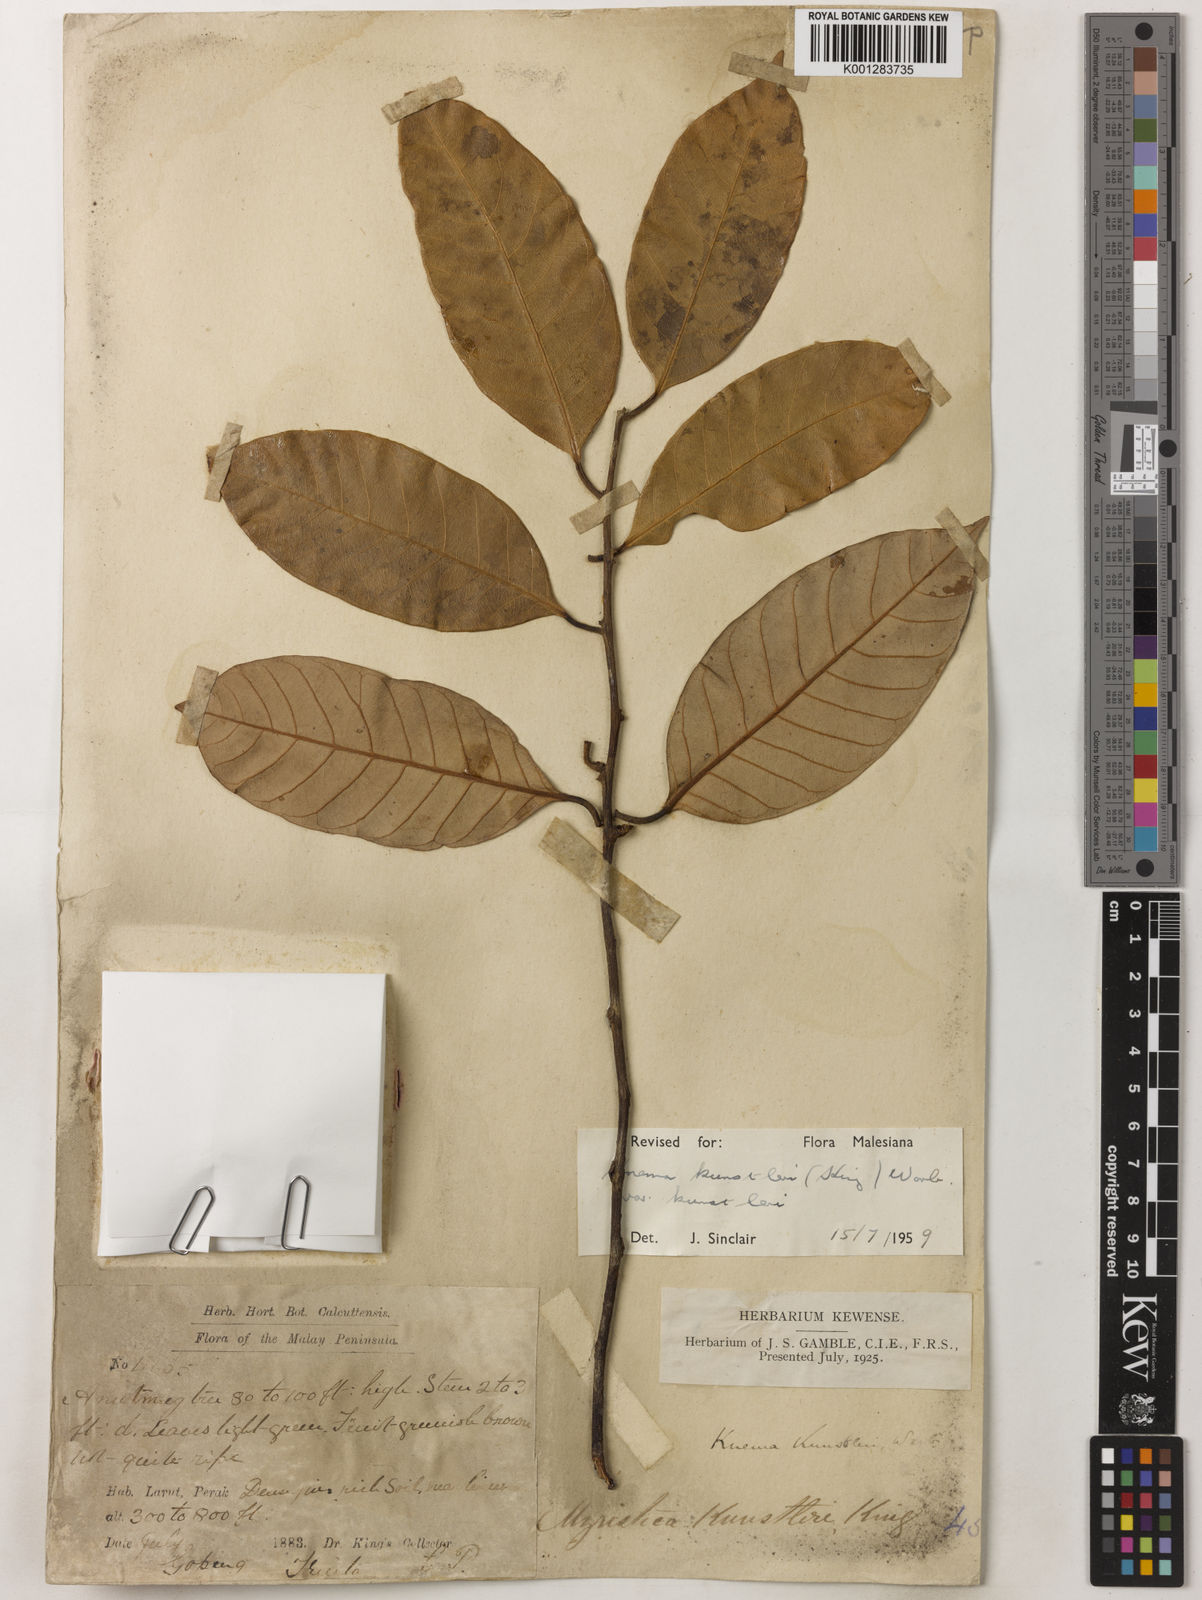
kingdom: Plantae
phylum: Tracheophyta
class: Magnoliopsida
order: Magnoliales
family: Myristicaceae
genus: Knema
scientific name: Knema kunstleri
